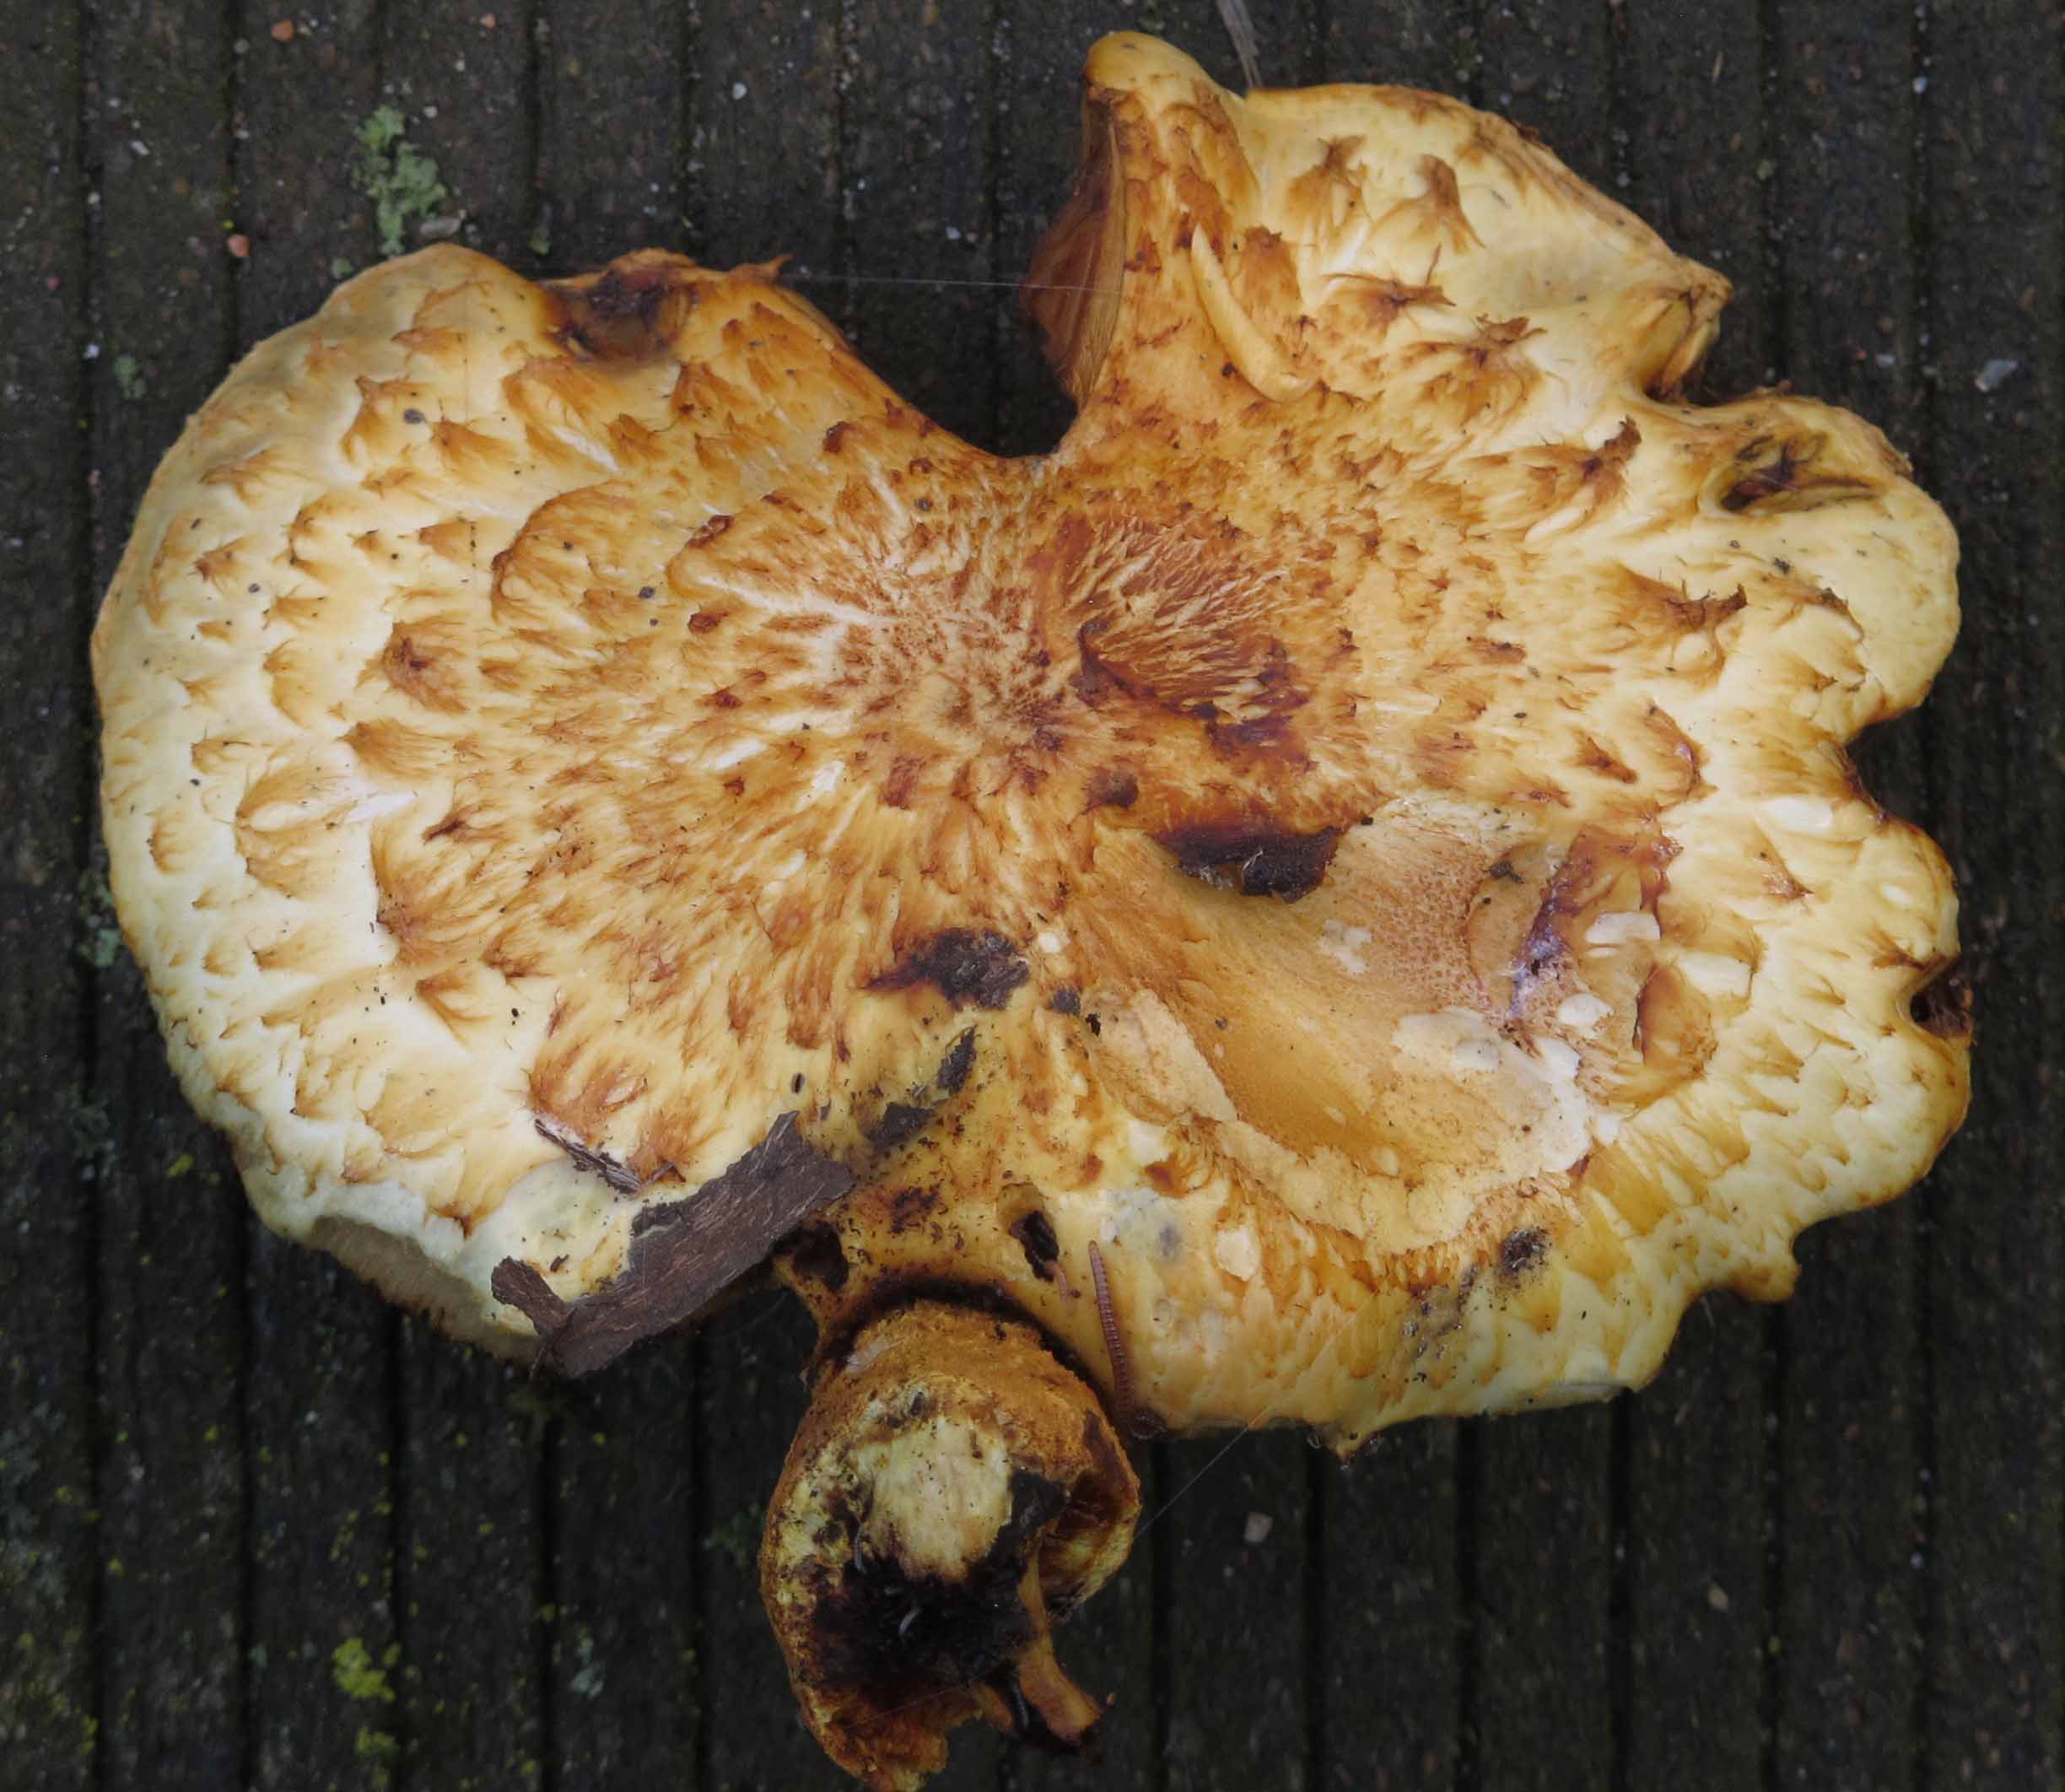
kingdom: Fungi
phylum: Basidiomycota
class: Agaricomycetes
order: Agaricales
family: Strophariaceae
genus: Pholiota
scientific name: Pholiota aurivella
